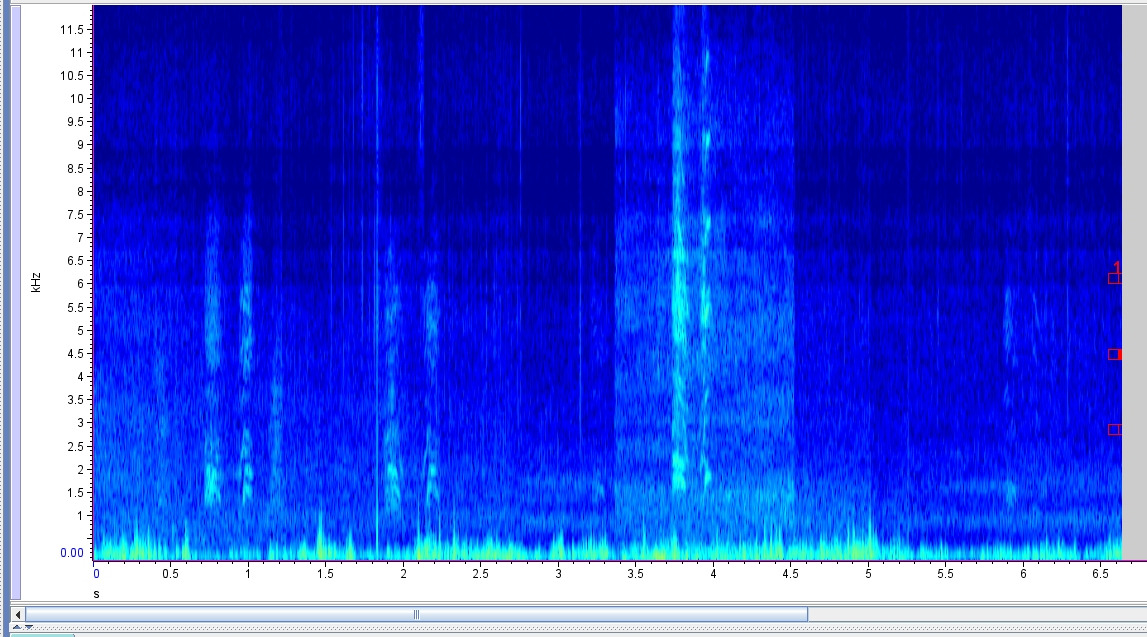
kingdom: Animalia
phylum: Chordata
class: Aves
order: Anseriformes
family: Anatidae
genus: Branta
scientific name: Branta ruficollis
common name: Rødhalset gås
